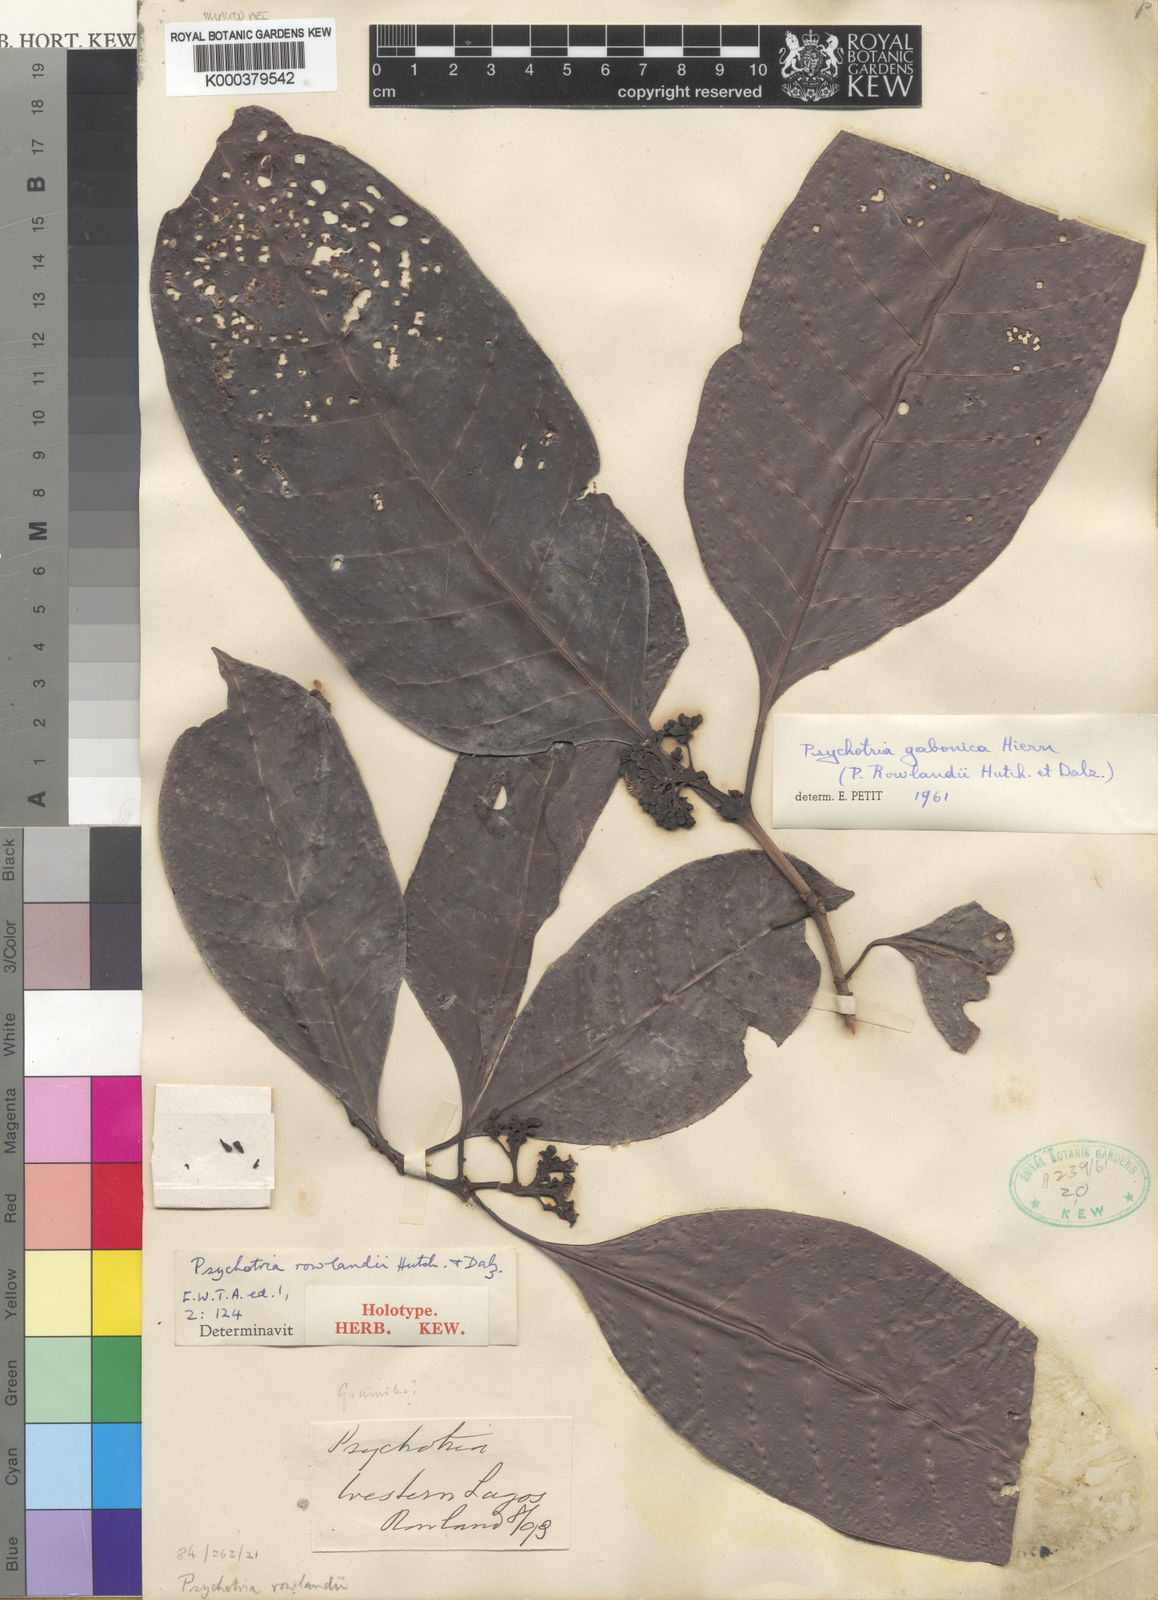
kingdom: Plantae
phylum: Tracheophyta
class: Magnoliopsida
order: Gentianales
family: Rubiaceae
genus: Psychotria
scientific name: Psychotria gabonica
